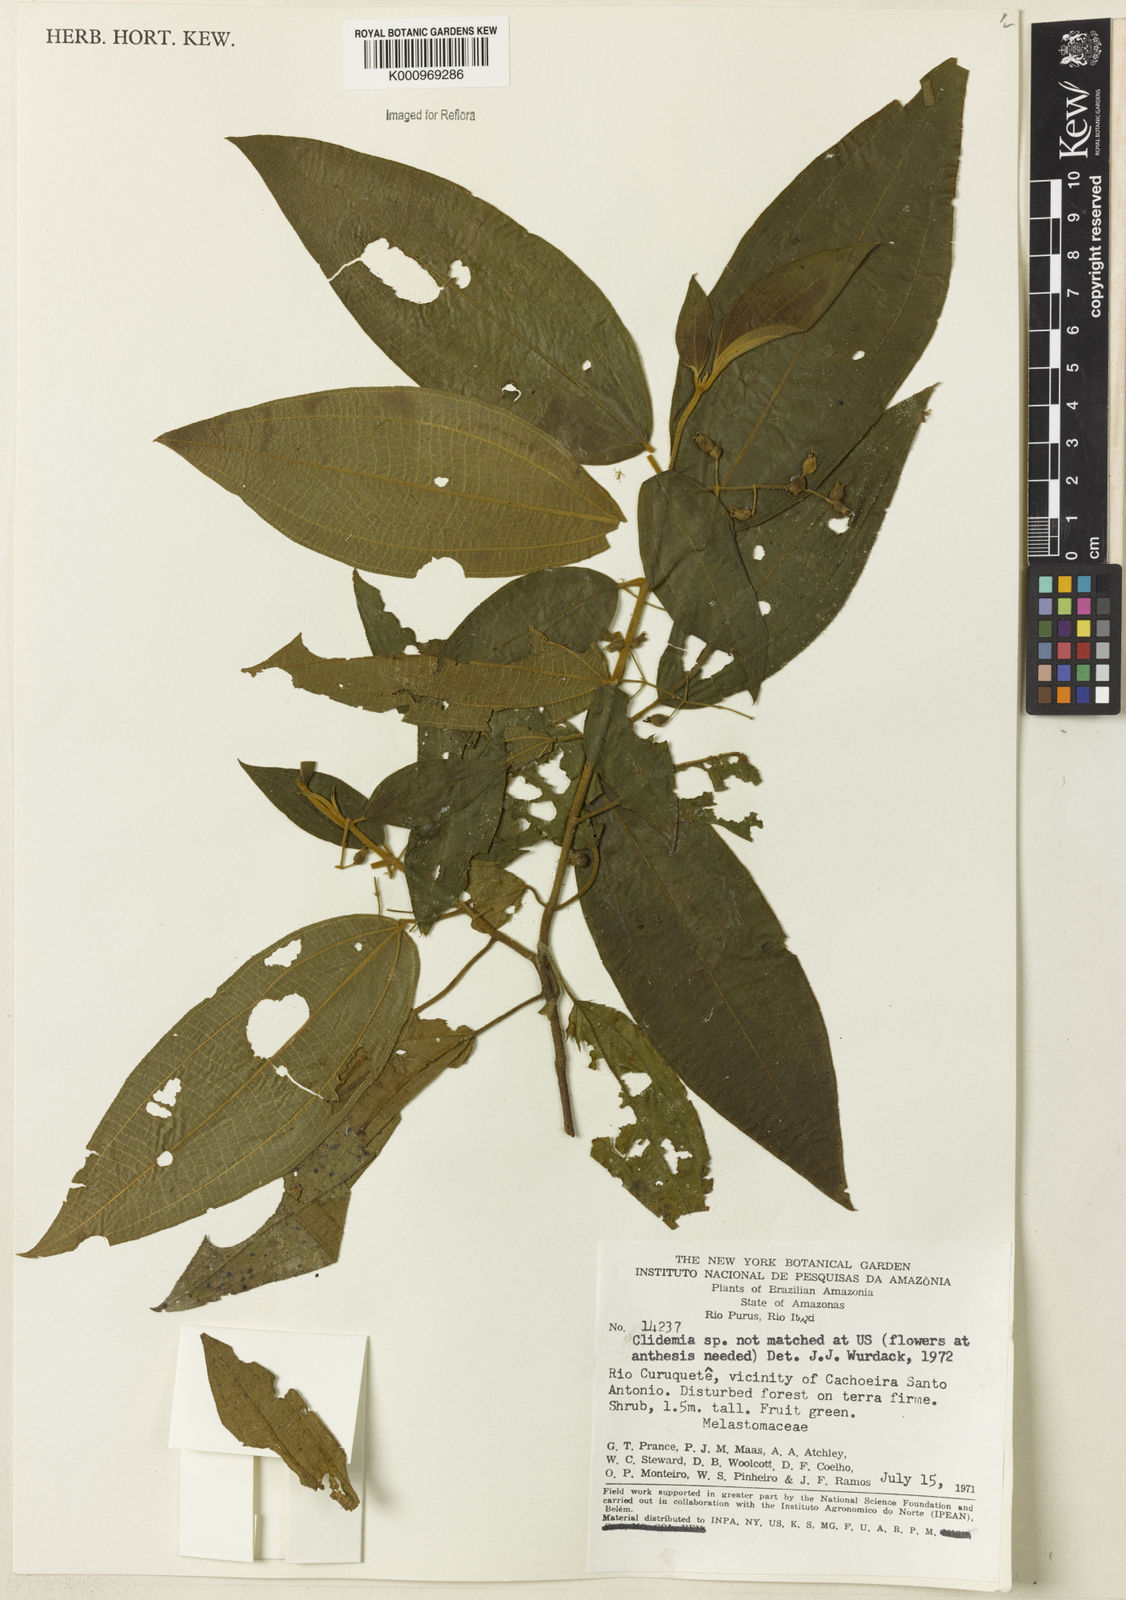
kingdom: Plantae
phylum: Tracheophyta
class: Magnoliopsida
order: Myrtales
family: Melastomataceae
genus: Miconia
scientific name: Miconia
